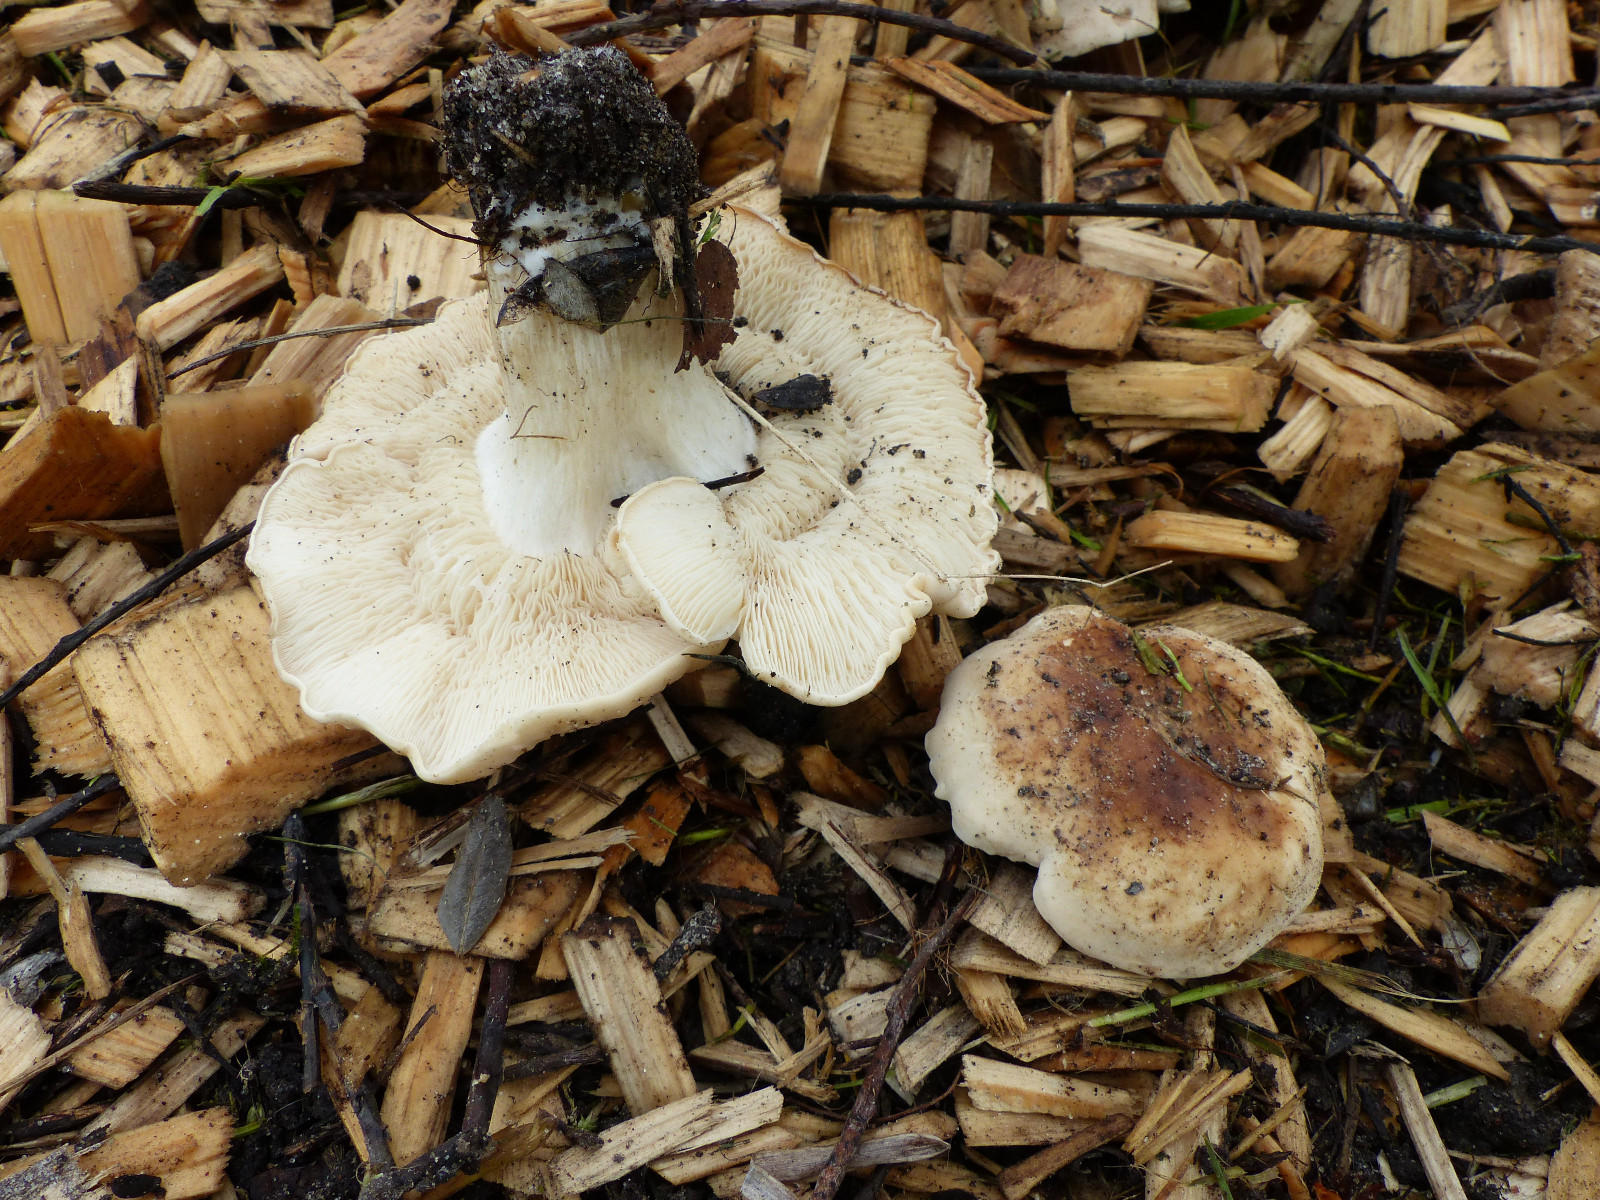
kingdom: Fungi
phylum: Basidiomycota
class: Agaricomycetes
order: Agaricales
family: Lyophyllaceae
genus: Calocybe
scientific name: Calocybe gambosa
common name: vårmusseron
